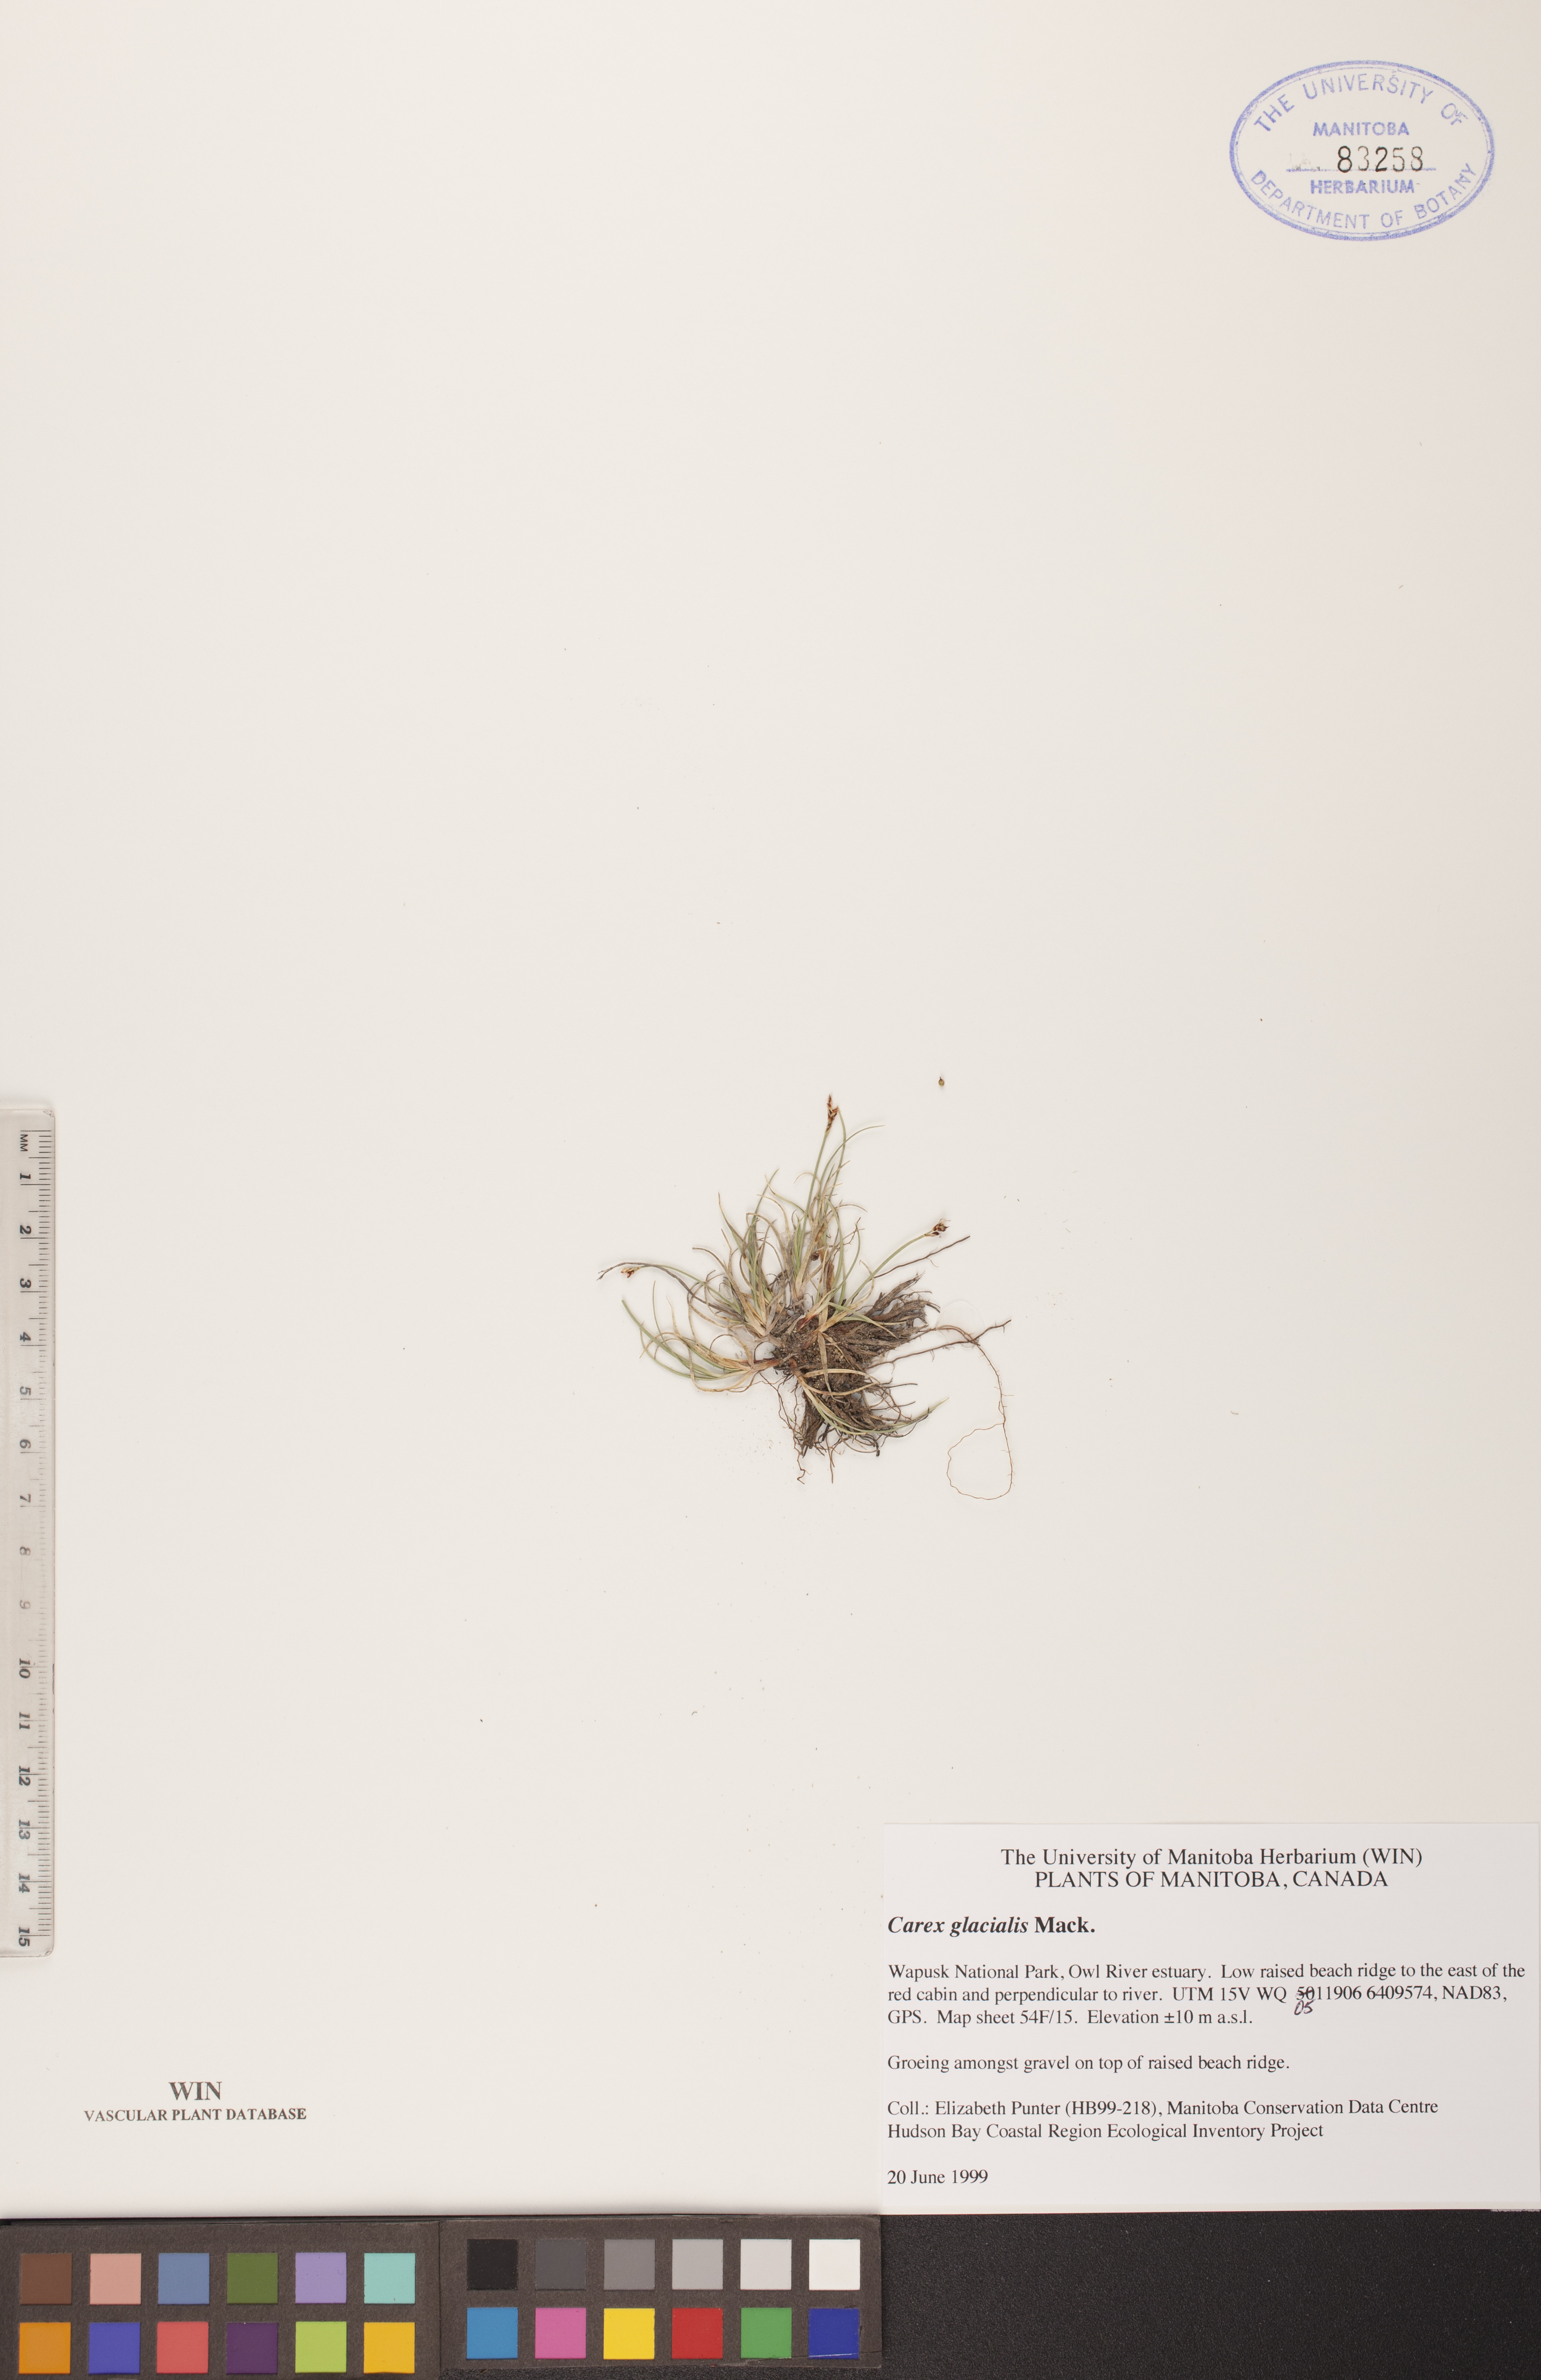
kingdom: Plantae
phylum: Tracheophyta
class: Liliopsida
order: Poales
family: Cyperaceae
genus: Carex
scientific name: Carex glacialis
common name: Newfoundland sedge
